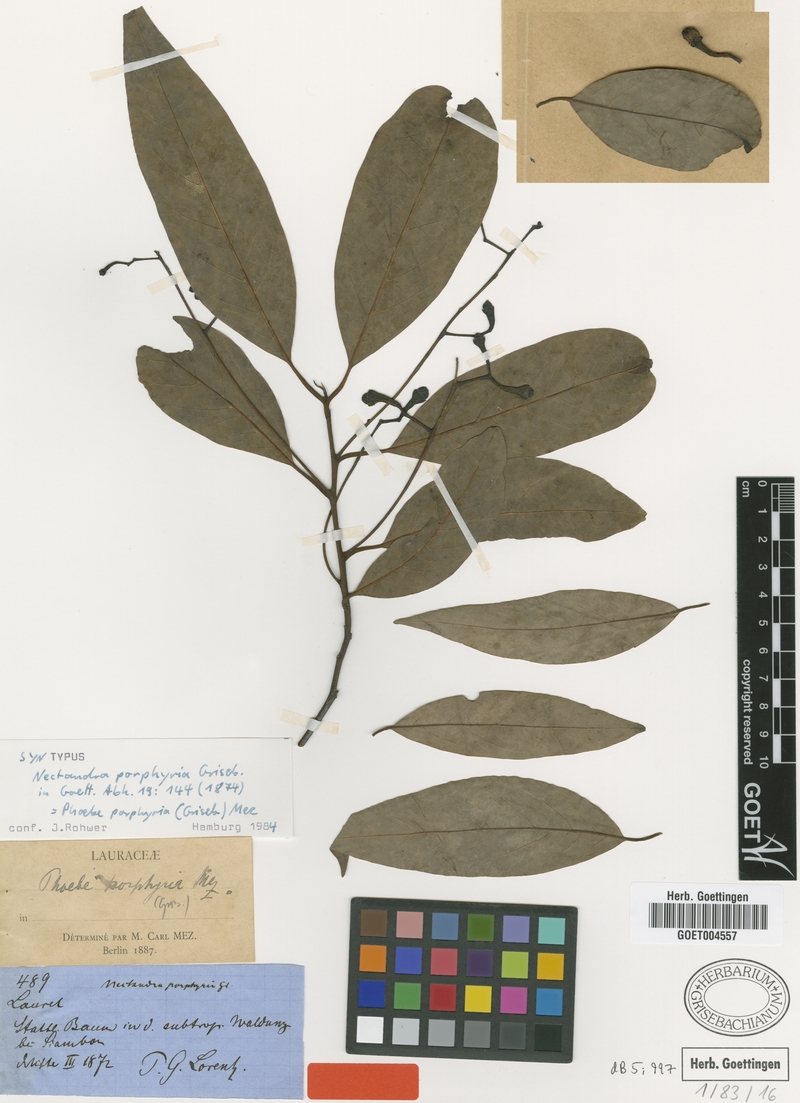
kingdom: Plantae
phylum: Tracheophyta
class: Magnoliopsida
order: Laurales
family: Lauraceae
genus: Ocotea
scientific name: Ocotea porphyria
